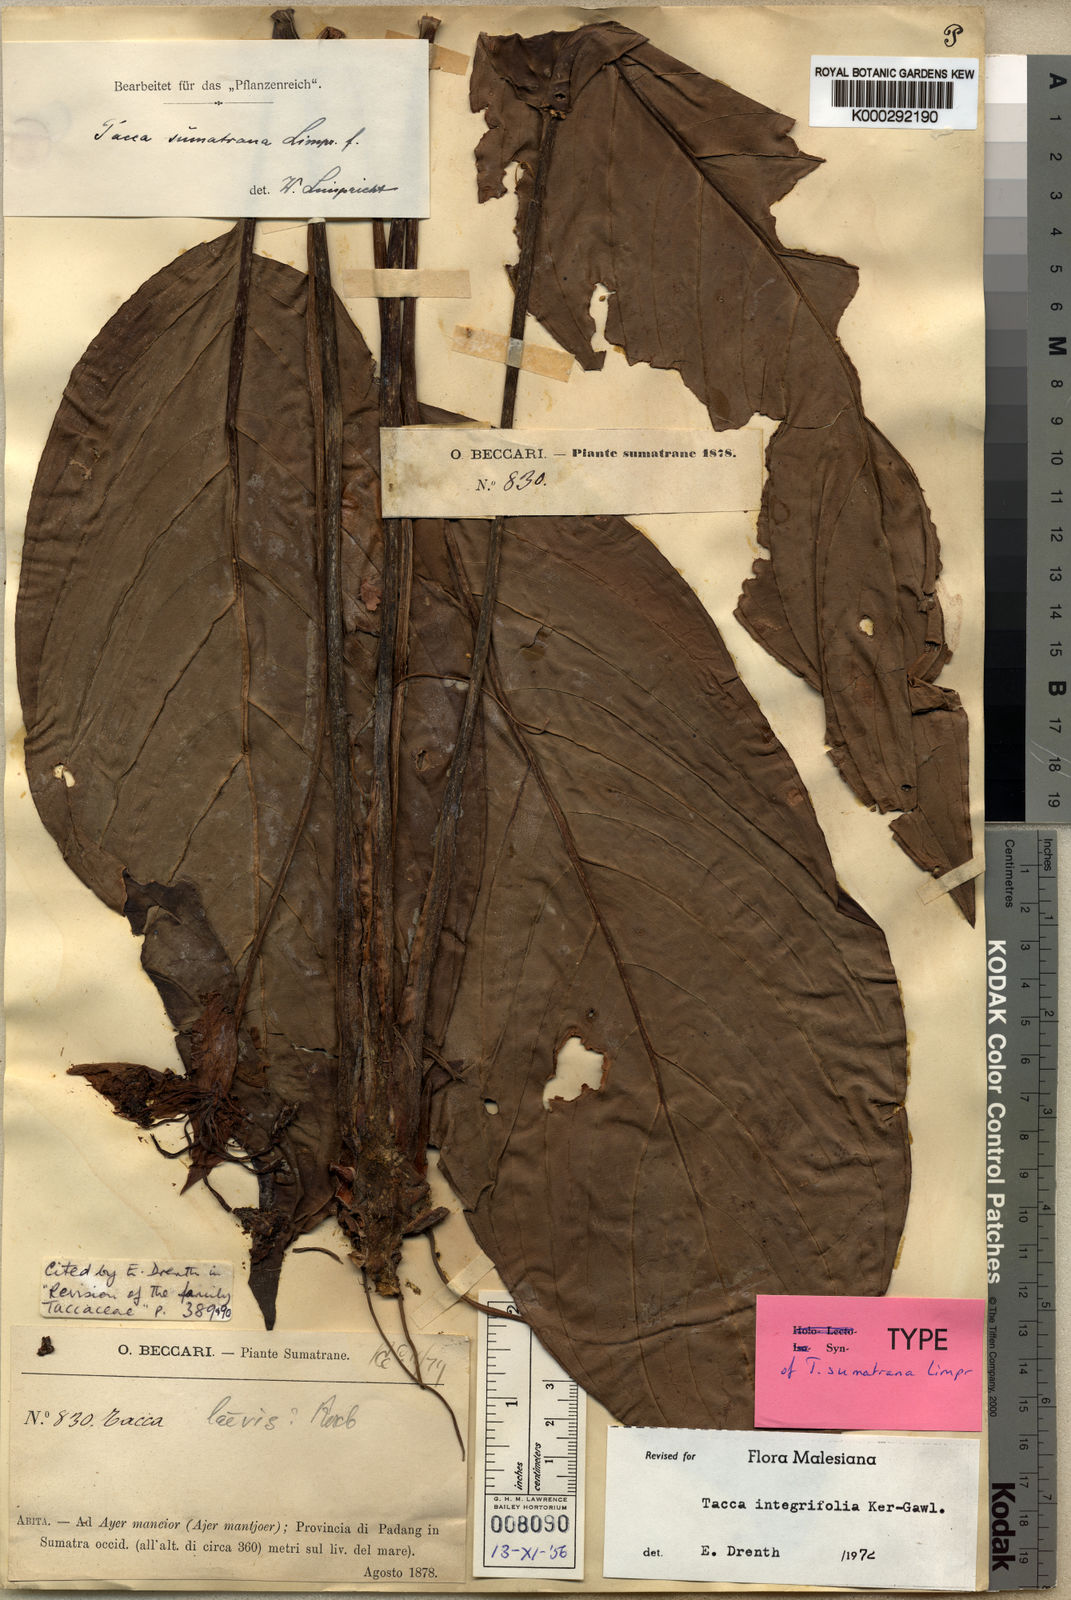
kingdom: Plantae
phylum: Tracheophyta
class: Liliopsida
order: Dioscoreales
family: Dioscoreaceae
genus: Tacca
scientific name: Tacca integrifolia
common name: Batplant
